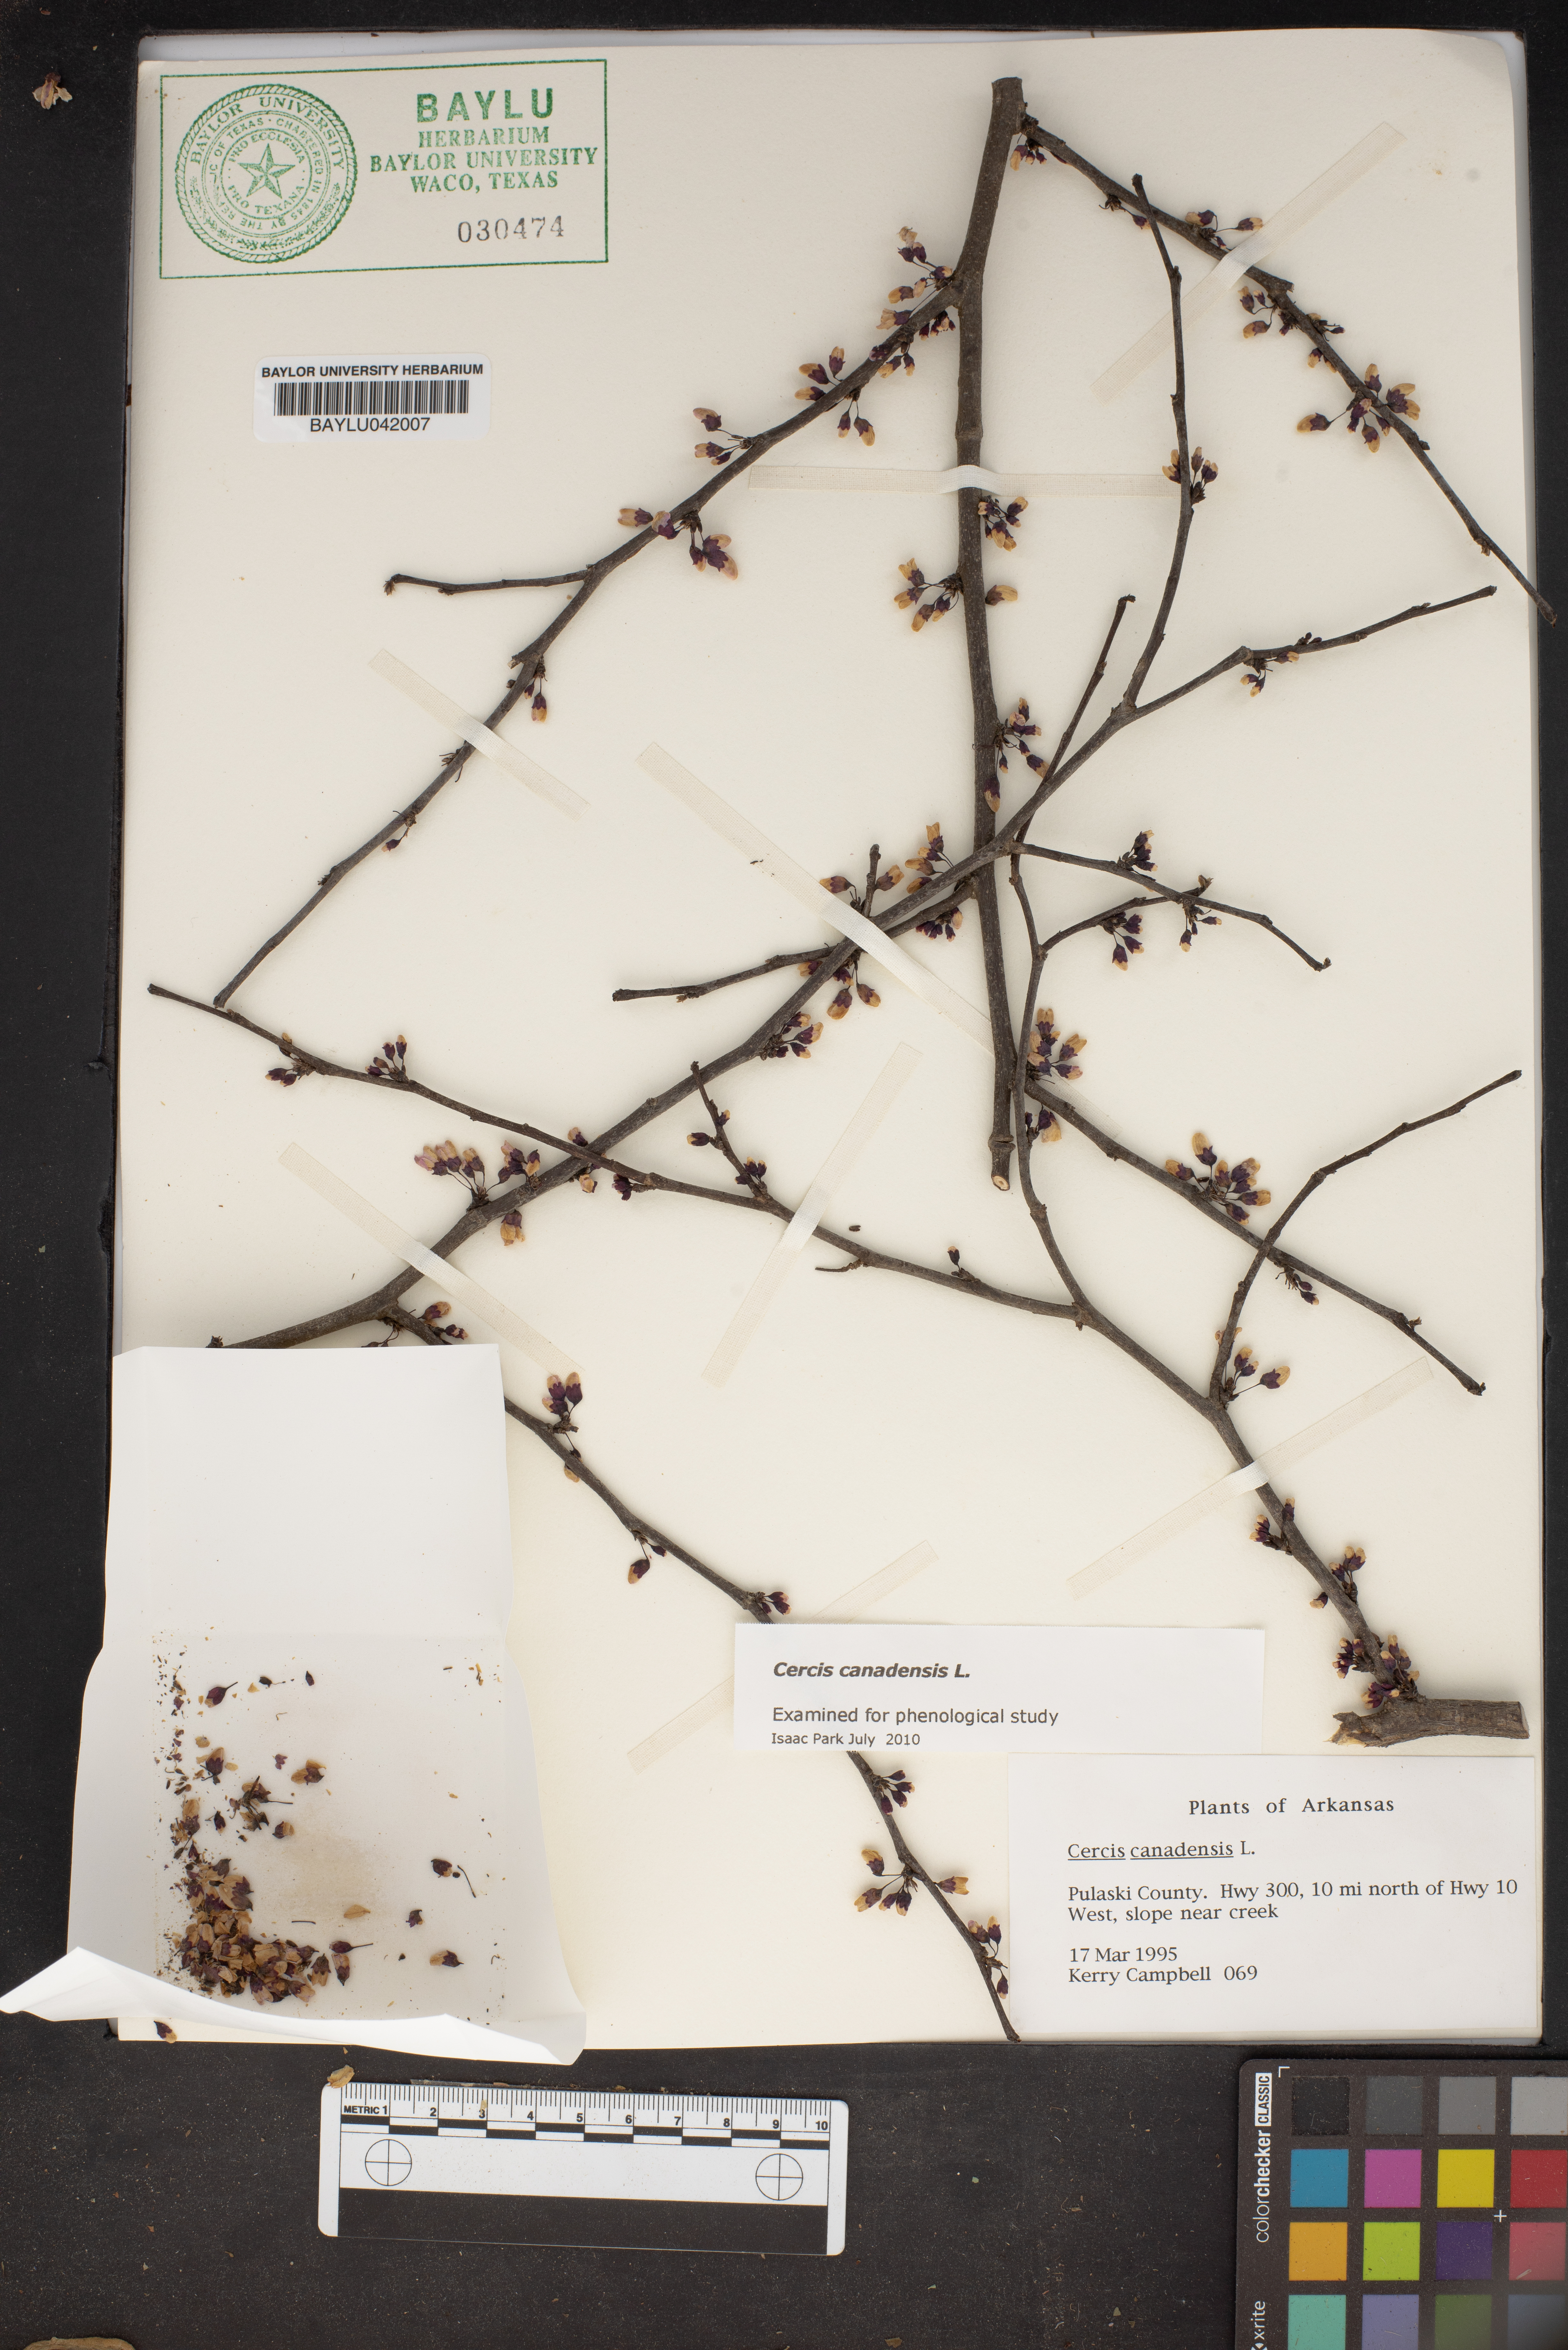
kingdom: Plantae
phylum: Tracheophyta
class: Magnoliopsida
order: Fabales
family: Fabaceae
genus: Cercis
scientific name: Cercis canadensis
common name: Eastern redbud
